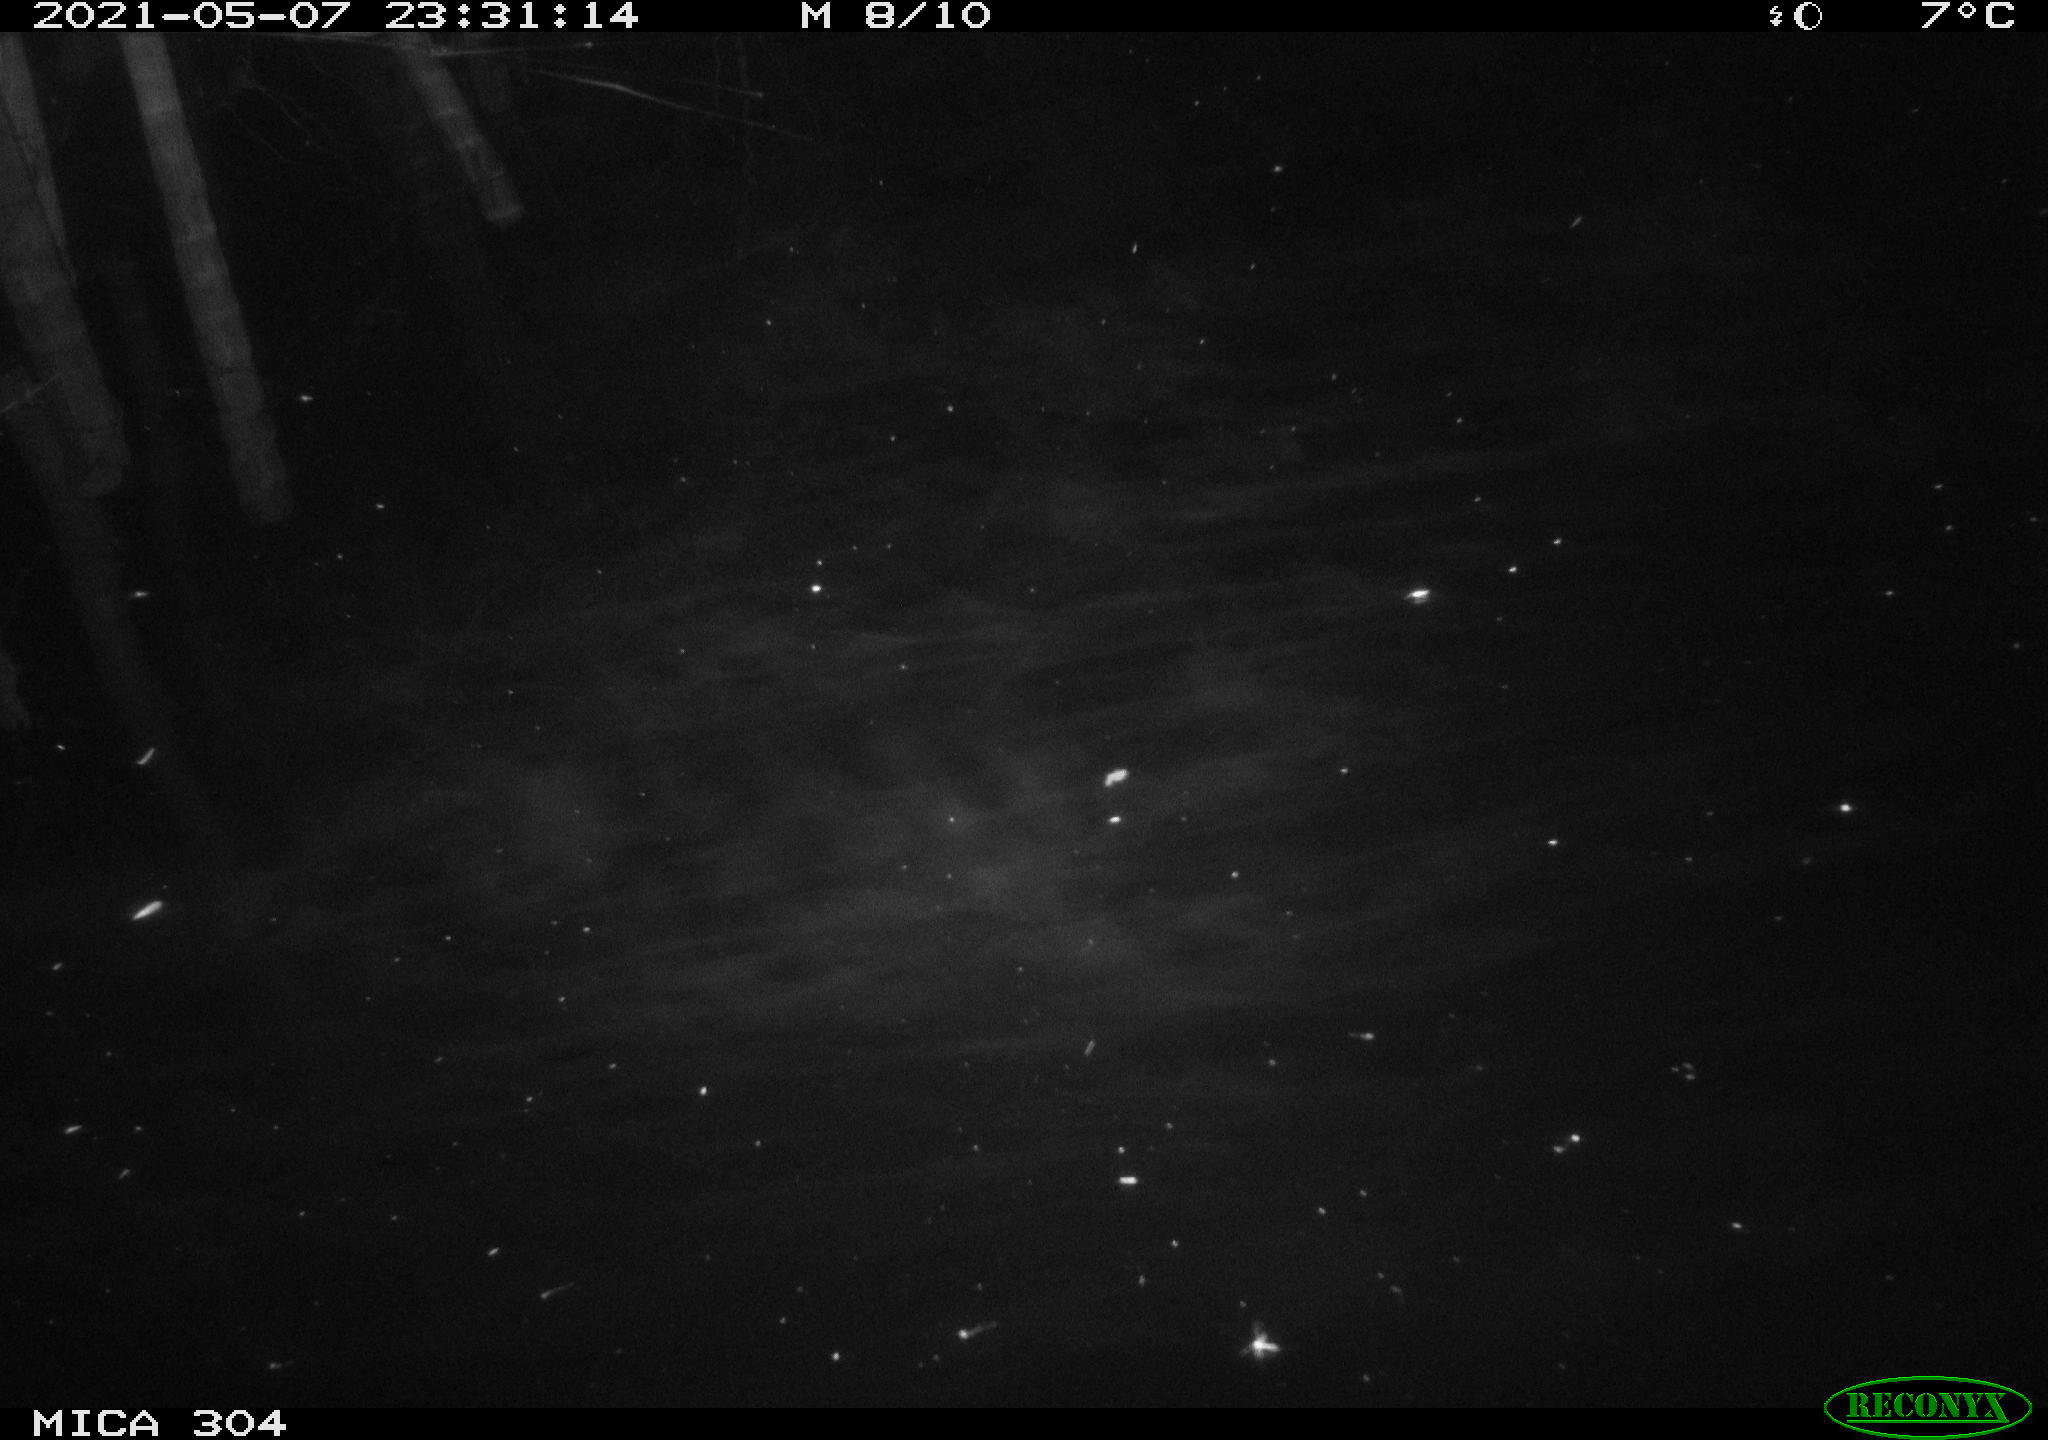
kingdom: Animalia
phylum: Chordata
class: Aves
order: Anseriformes
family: Anatidae
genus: Anas
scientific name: Anas platyrhynchos
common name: Mallard
